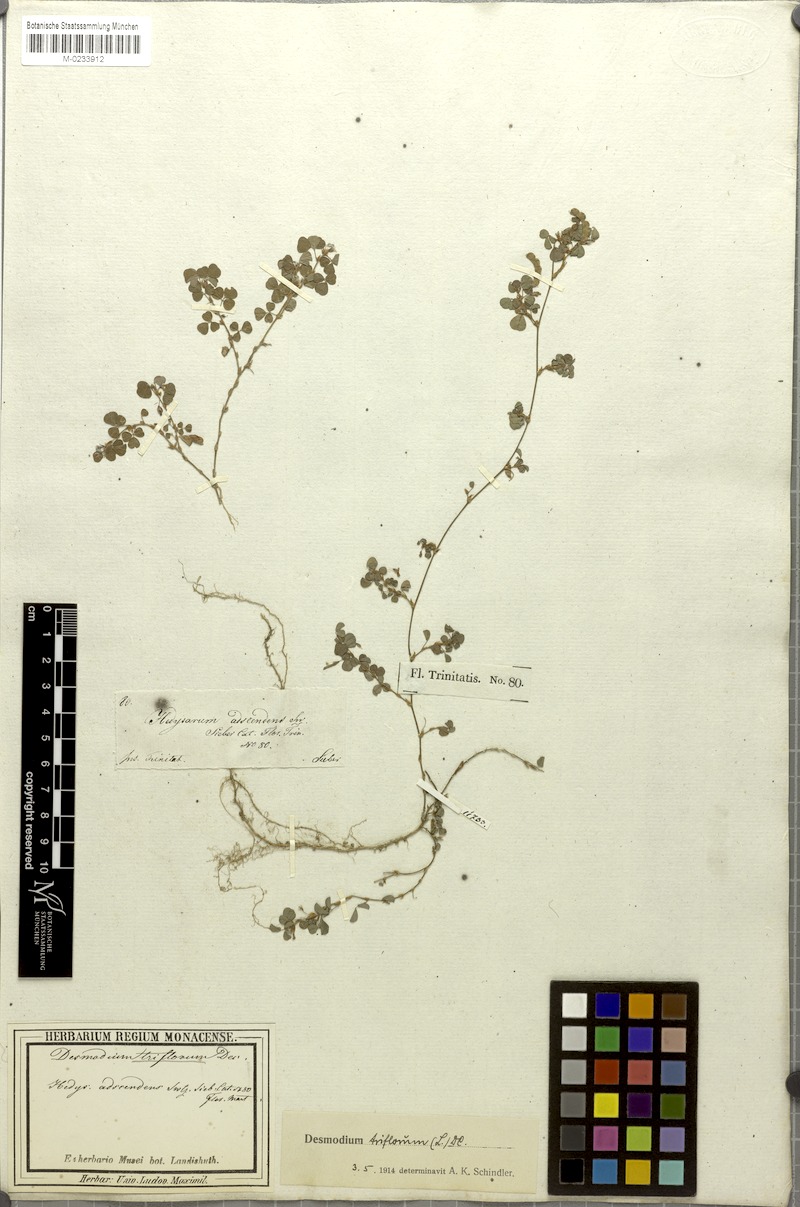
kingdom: Plantae
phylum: Tracheophyta
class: Magnoliopsida
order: Fabales
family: Fabaceae
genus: Grona
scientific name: Grona triflora
